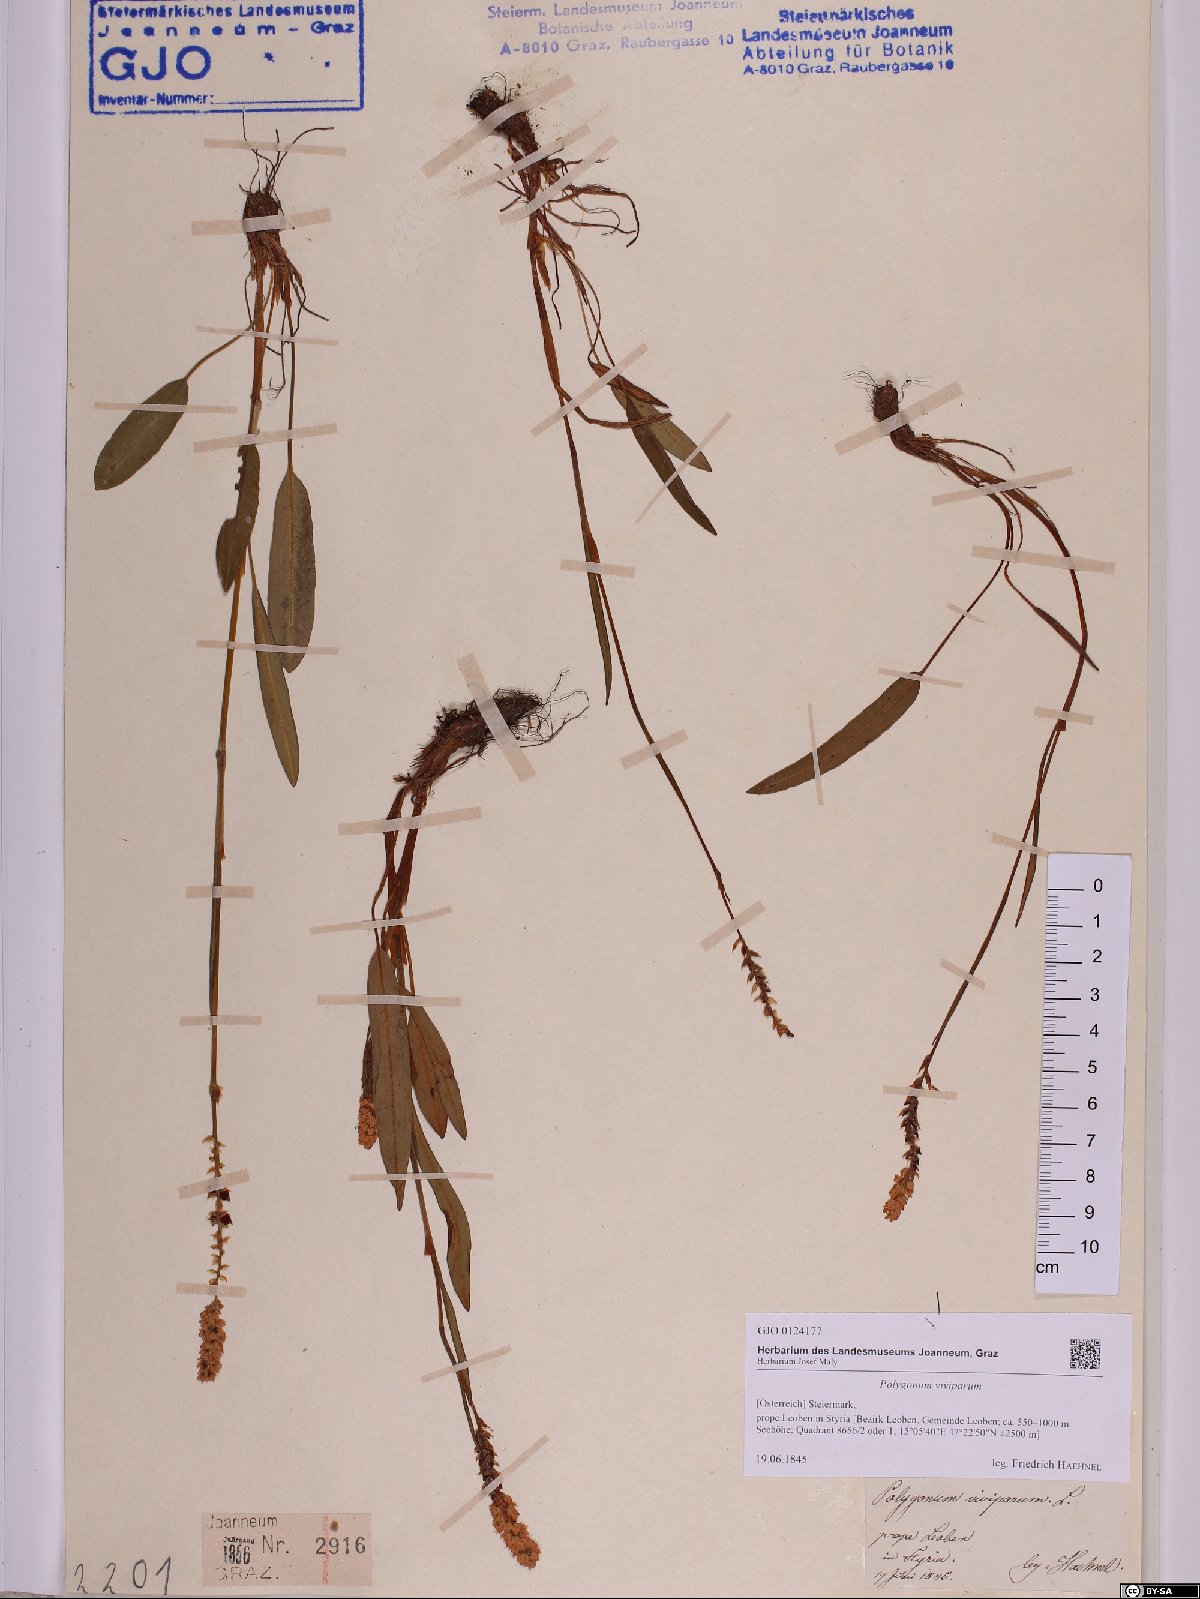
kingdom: Plantae
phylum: Tracheophyta
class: Magnoliopsida
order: Caryophyllales
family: Polygonaceae
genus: Bistorta
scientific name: Bistorta vivipara
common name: Alpine bistort
